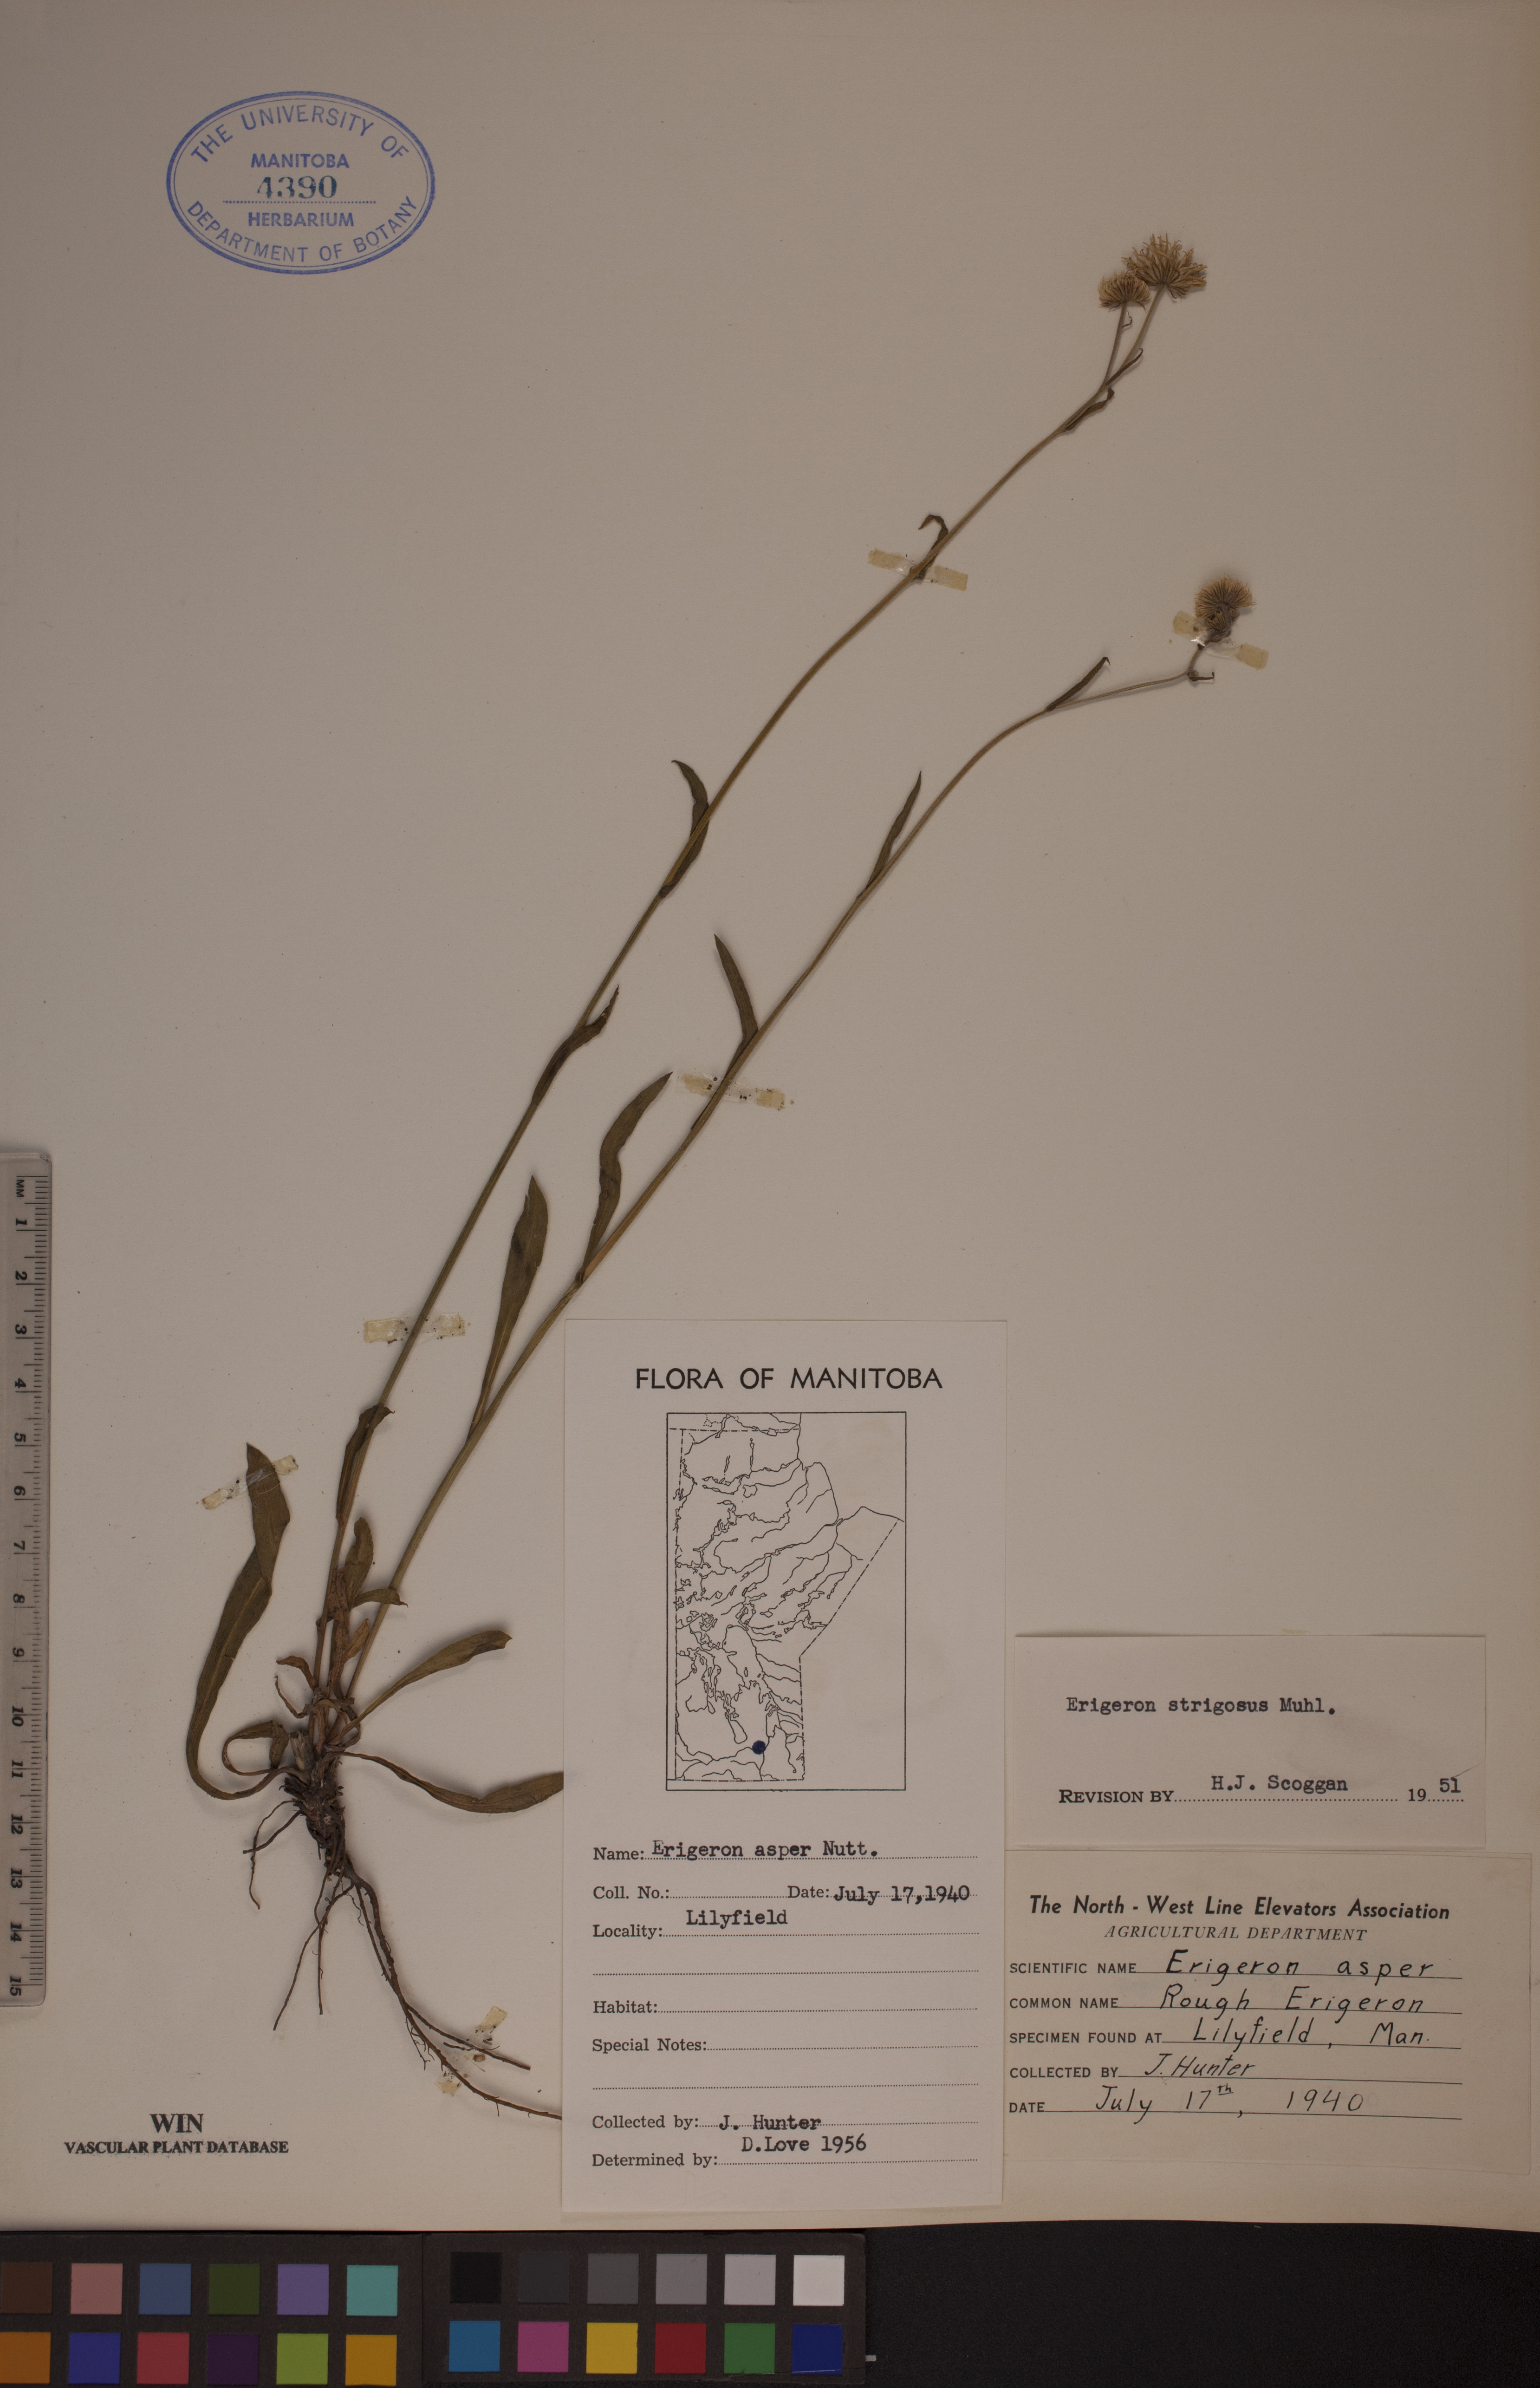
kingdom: Plantae
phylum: Tracheophyta
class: Magnoliopsida
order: Asterales
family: Asteraceae
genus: Erigeron
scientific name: Erigeron glabellus
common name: Smooth fleabane
